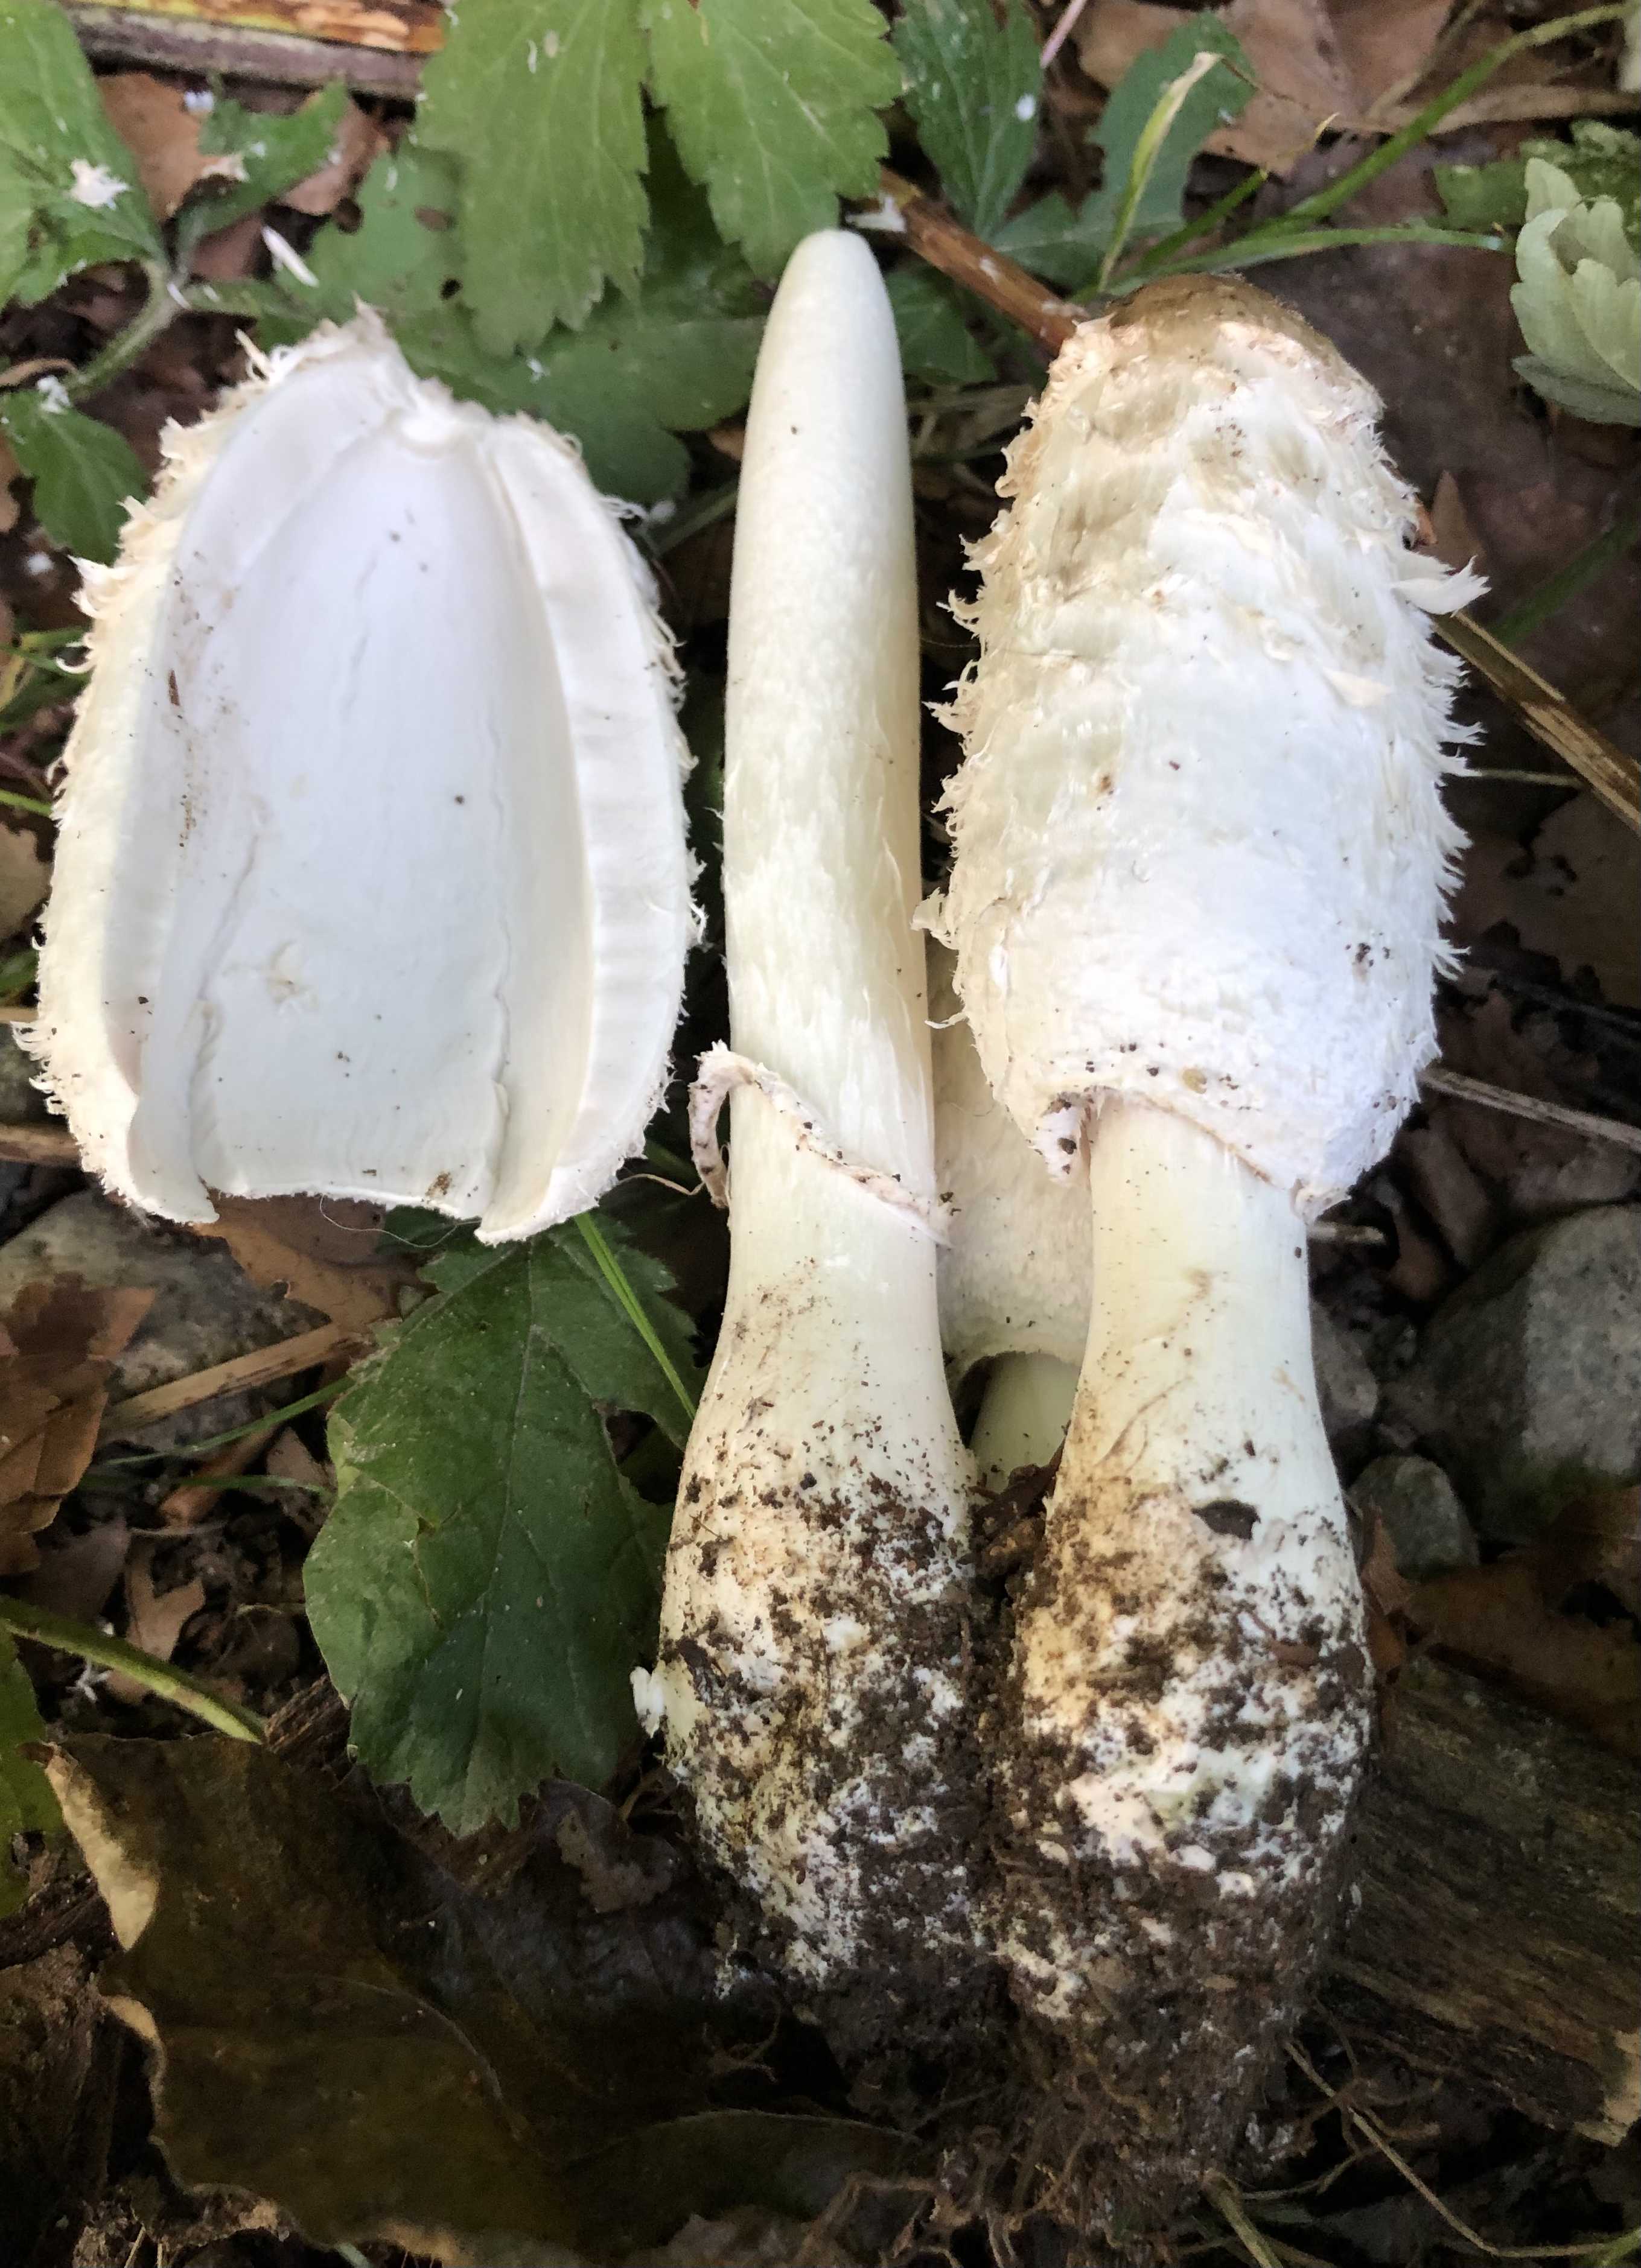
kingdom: Fungi
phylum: Basidiomycota
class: Agaricomycetes
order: Agaricales
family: Agaricaceae
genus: Coprinus
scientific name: Coprinus comatus
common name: stor parykhat
